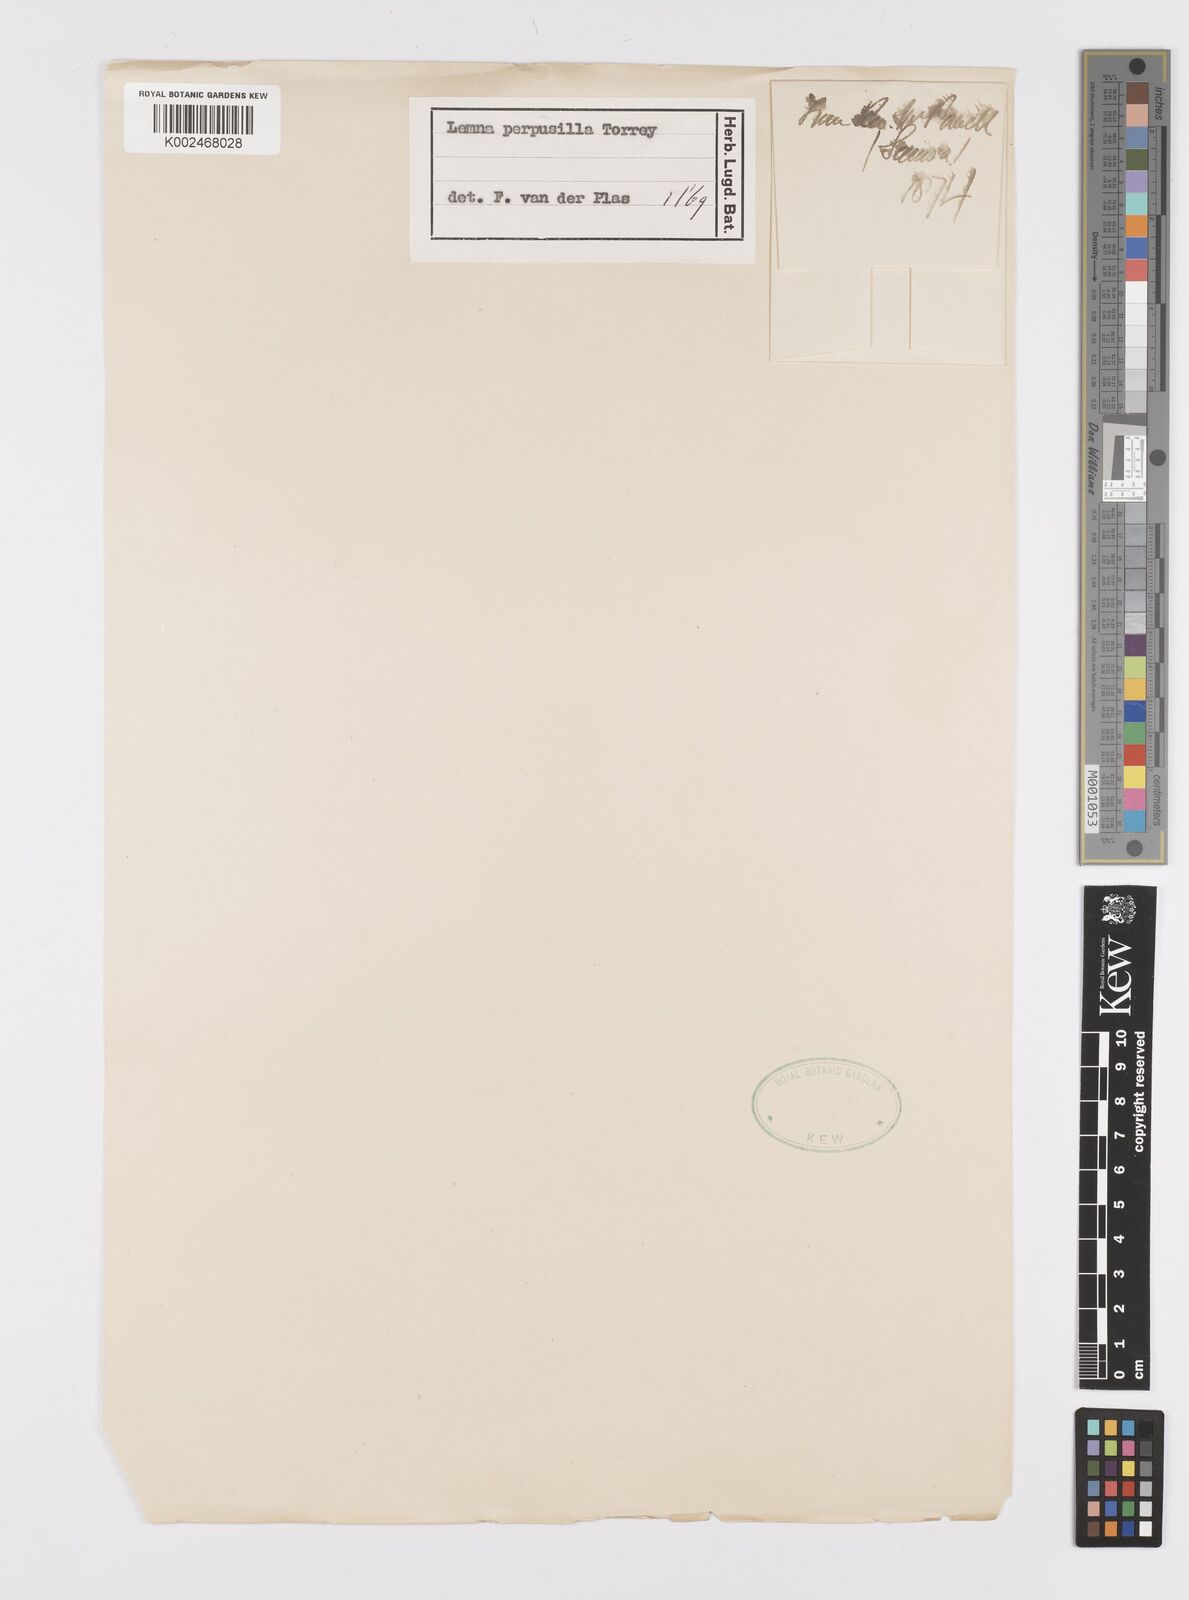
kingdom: Plantae
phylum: Tracheophyta
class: Liliopsida
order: Alismatales
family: Araceae
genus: Lemna
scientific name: Lemna perpusilla
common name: Duckweed
